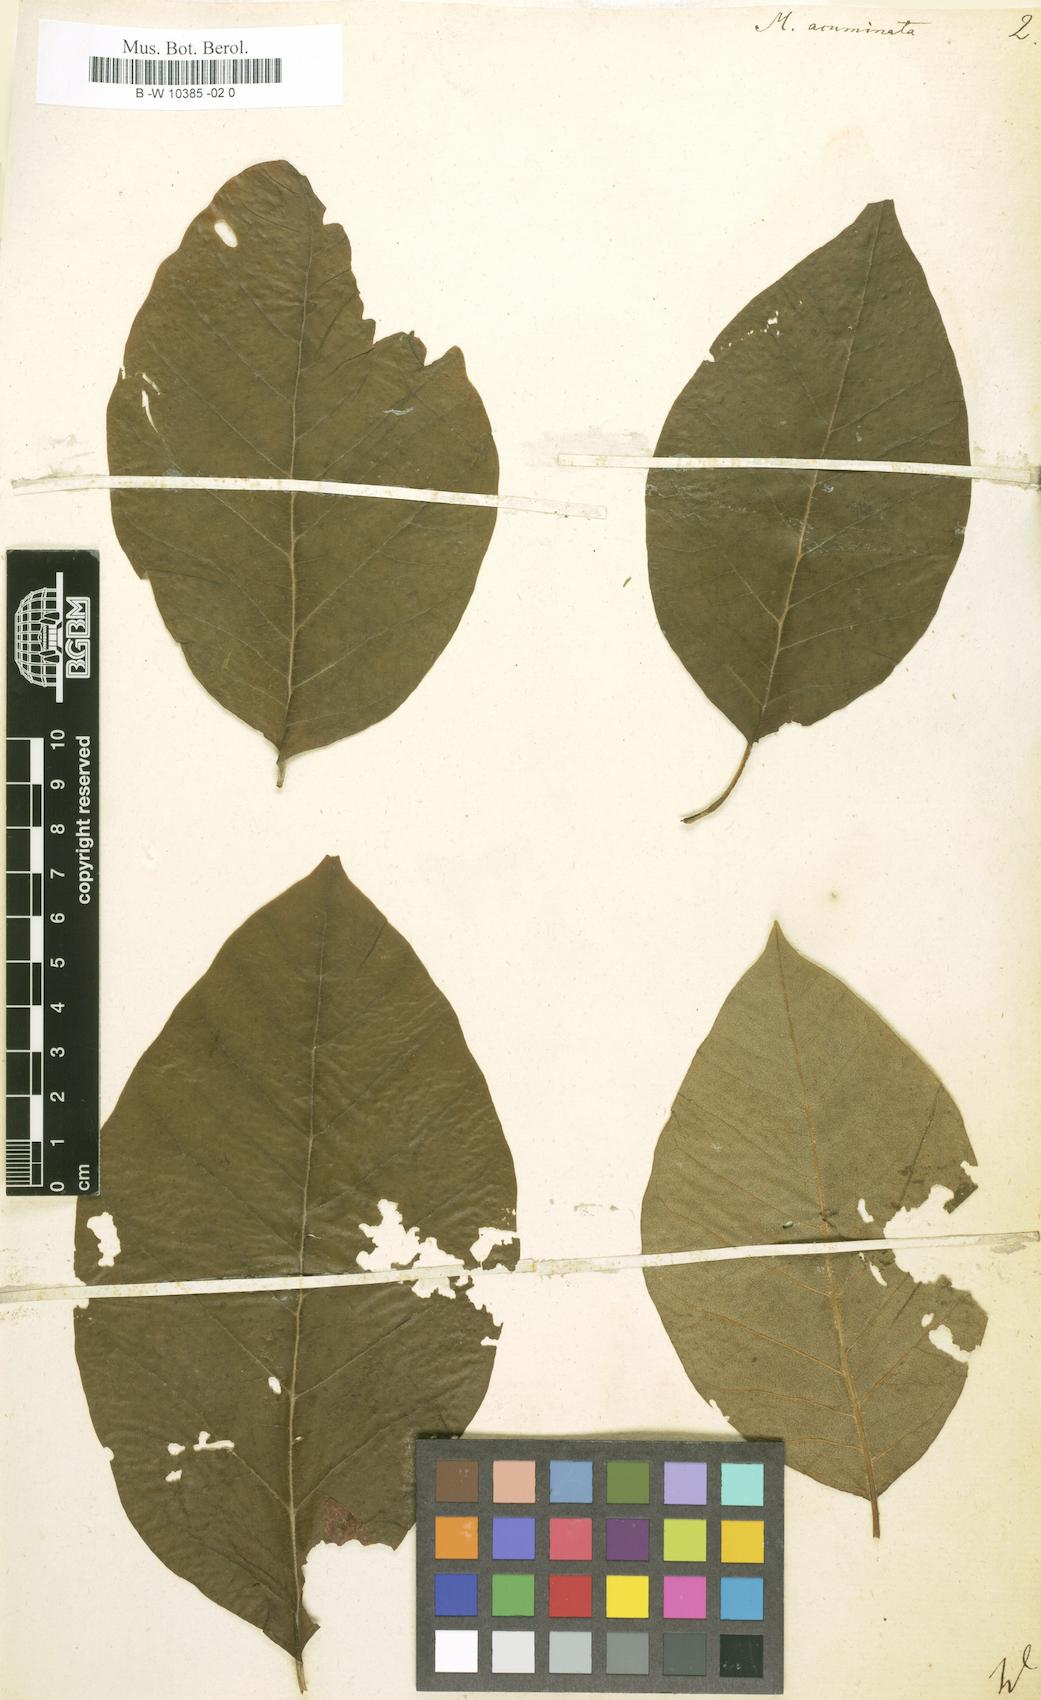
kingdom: Plantae
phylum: Tracheophyta
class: Magnoliopsida
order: Magnoliales
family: Magnoliaceae
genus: Magnolia
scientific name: Magnolia acuminata
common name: Cucumber magnolia
